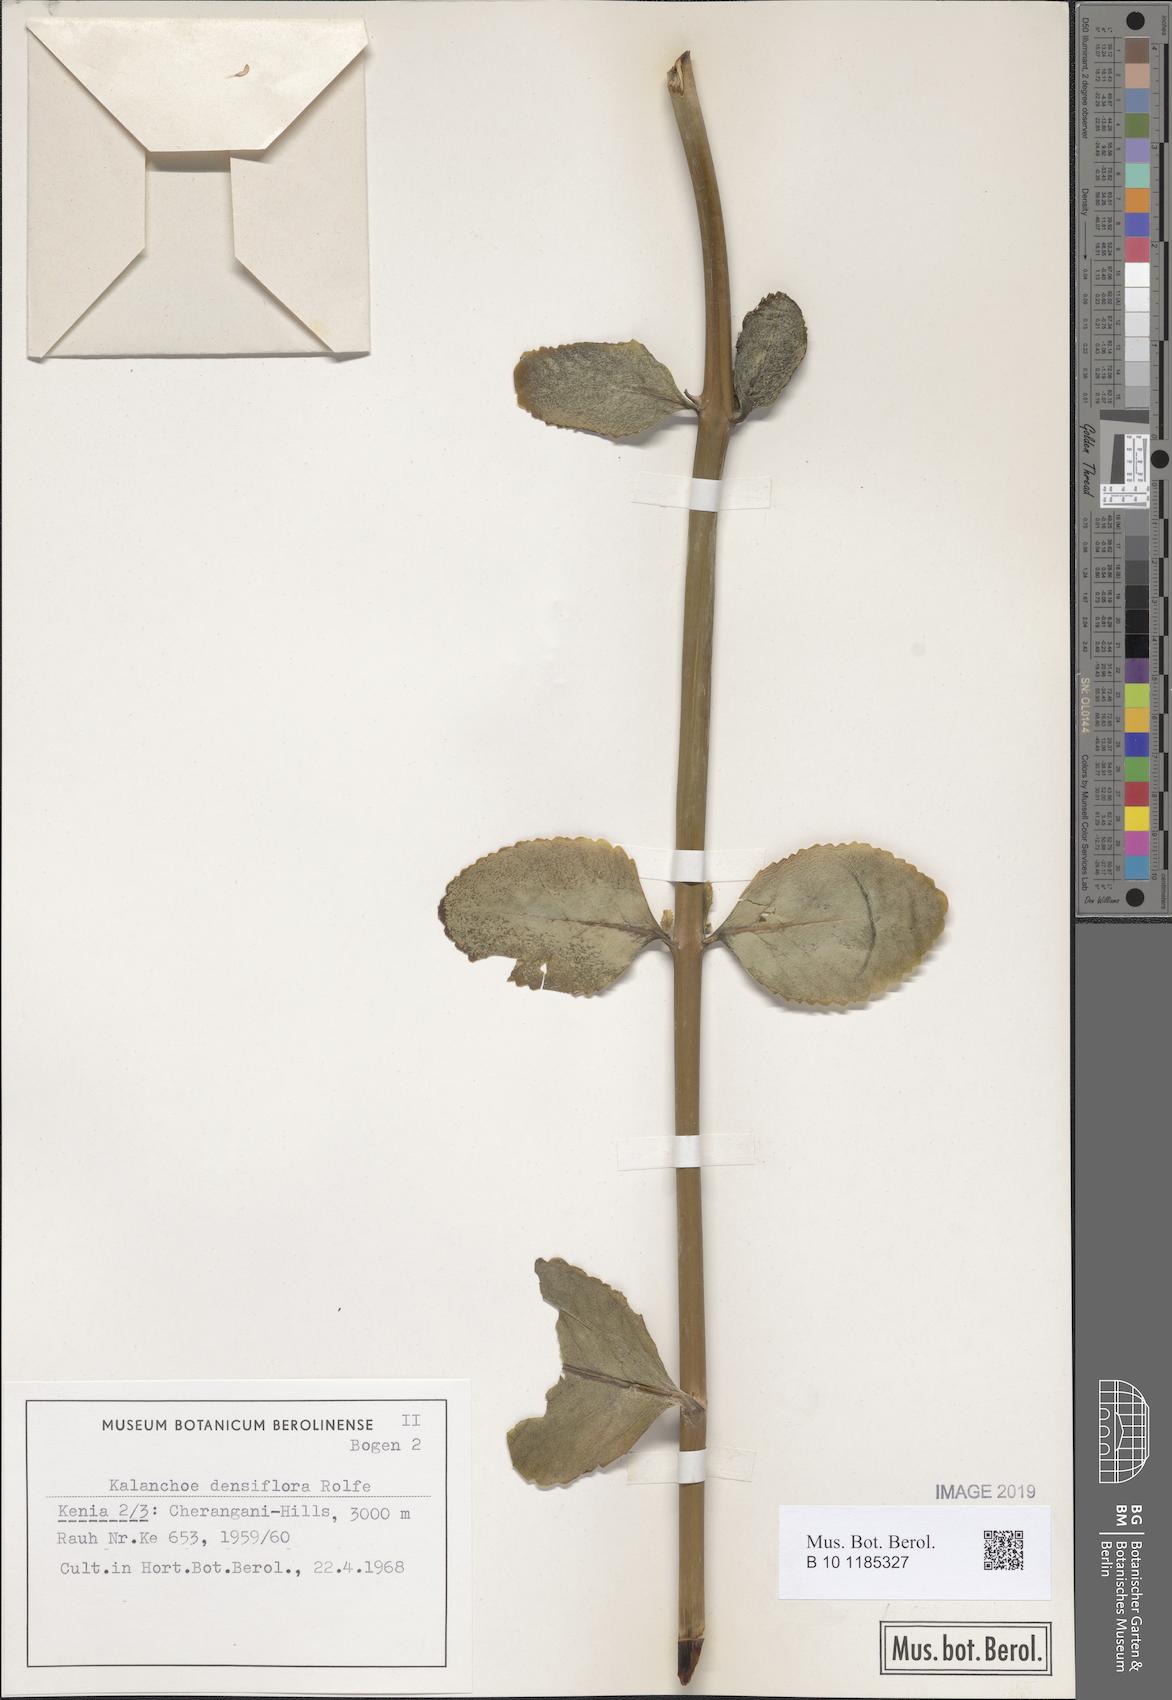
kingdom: Plantae
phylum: Tracheophyta
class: Magnoliopsida
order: Saxifragales
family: Crassulaceae
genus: Kalanchoe
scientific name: Kalanchoe densiflora
